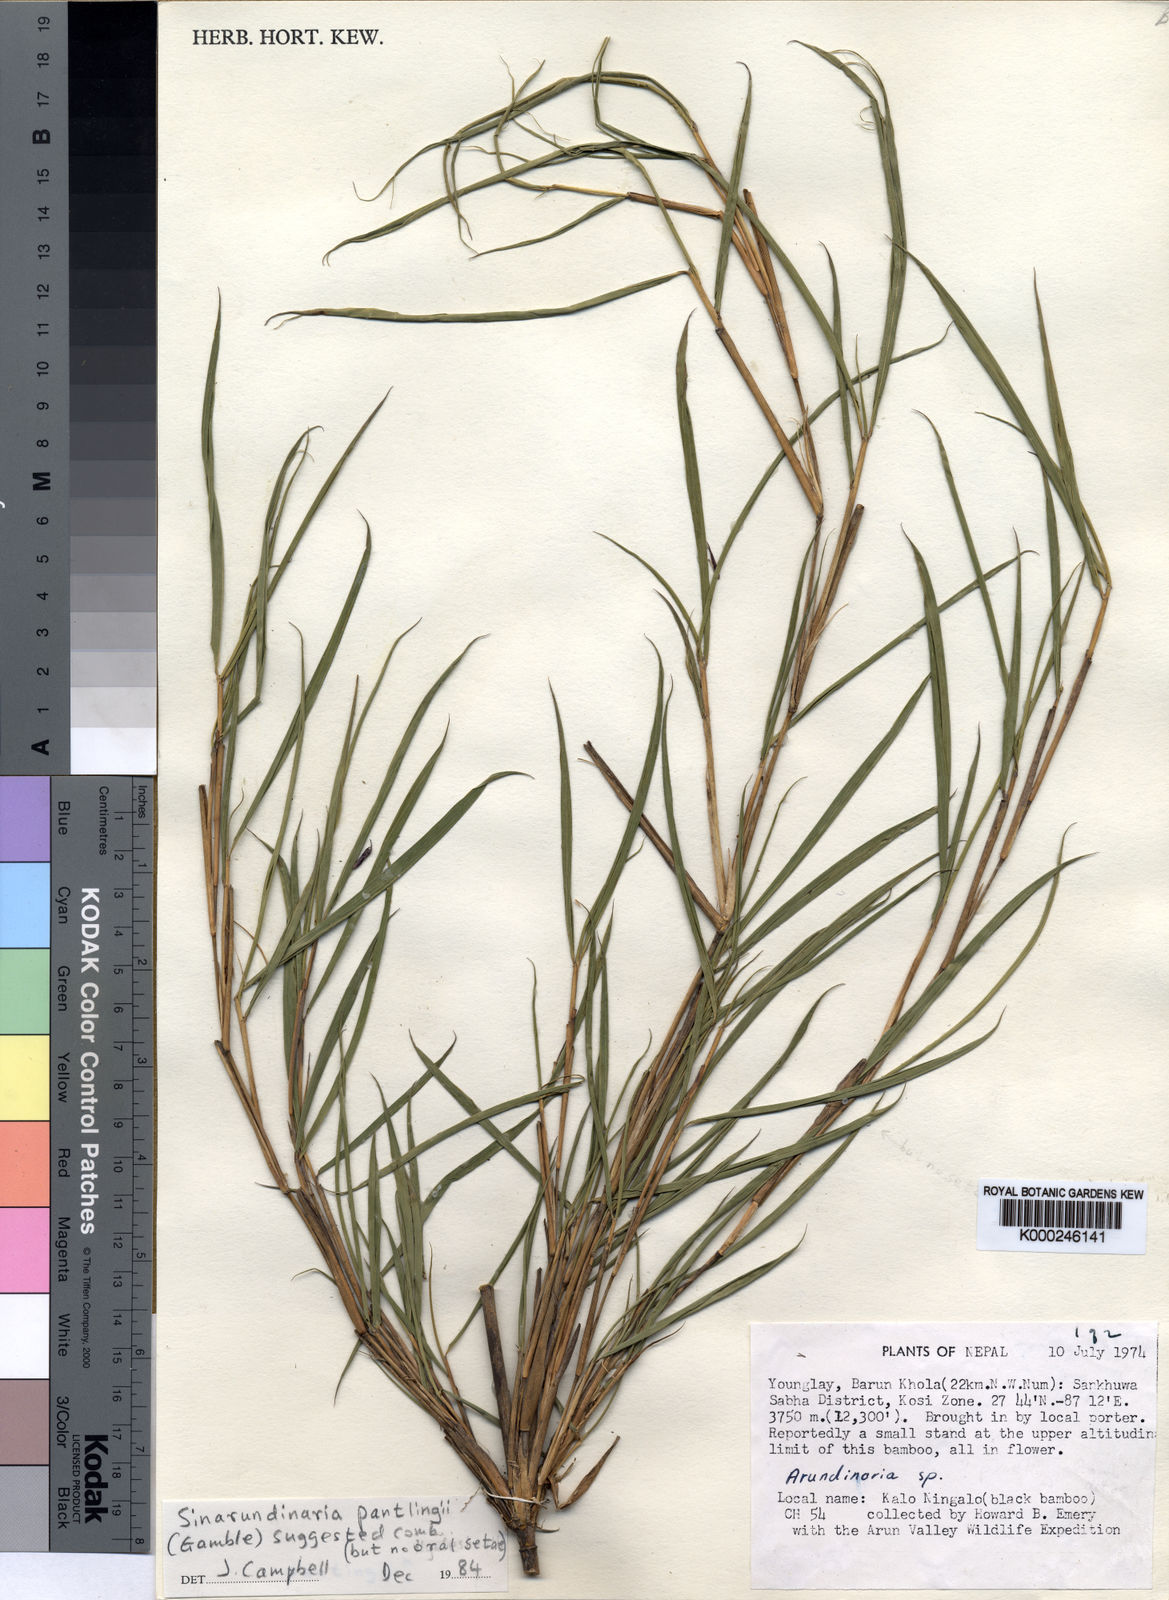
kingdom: Plantae
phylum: Tracheophyta
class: Liliopsida
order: Poales
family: Poaceae
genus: Yushania
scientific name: Yushania emeryi
